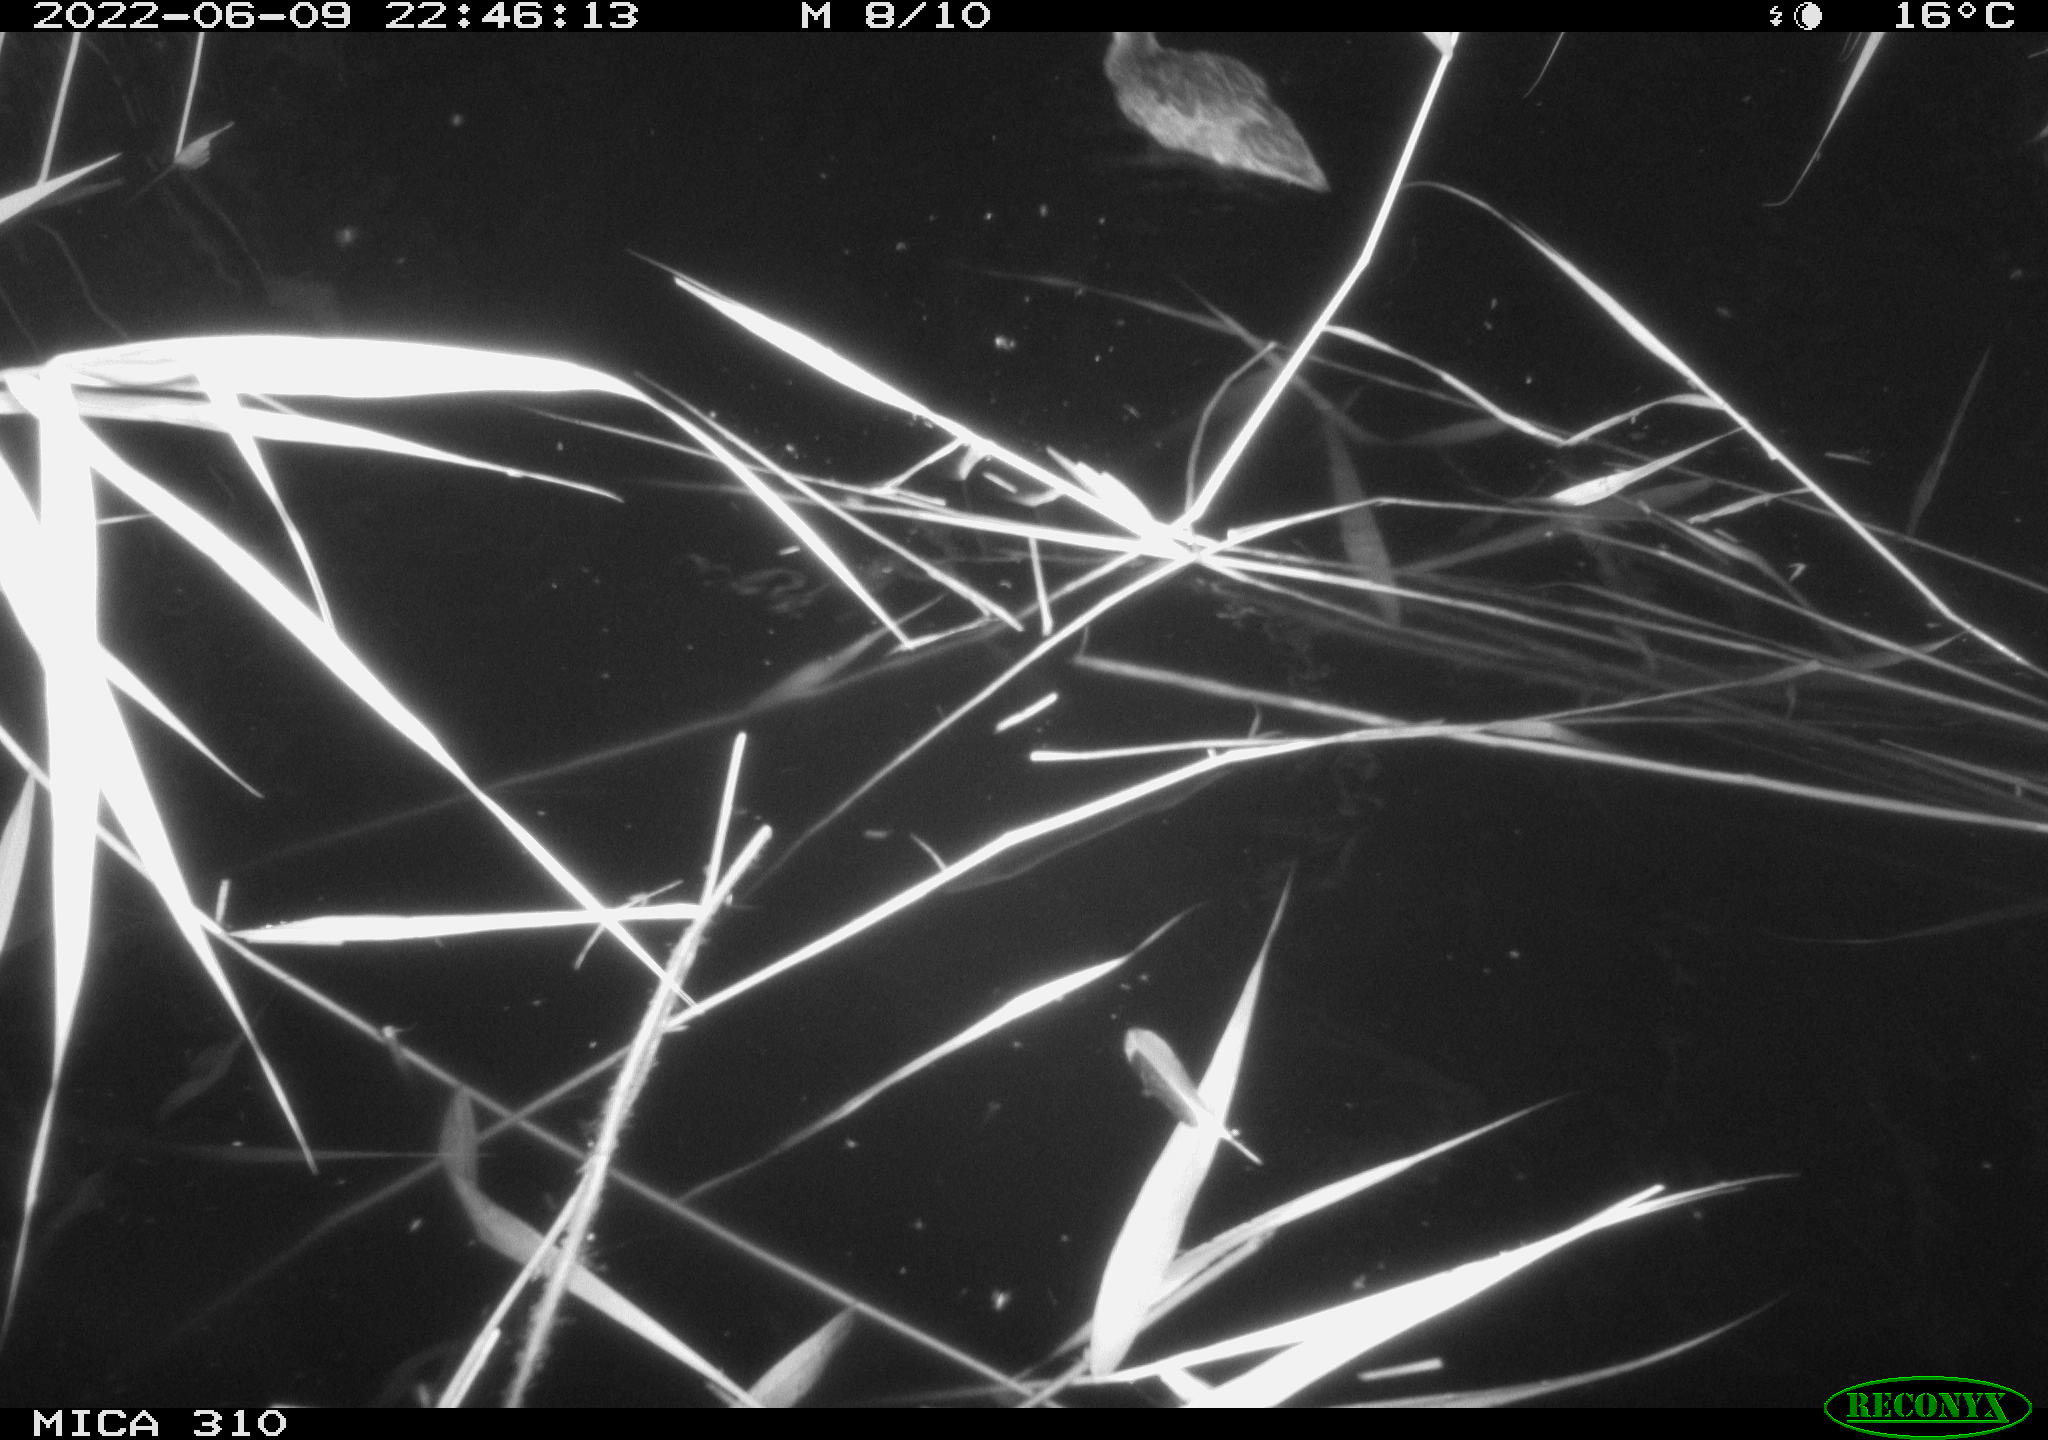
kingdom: Animalia
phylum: Chordata
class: Aves
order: Anseriformes
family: Anatidae
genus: Anas
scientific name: Anas platyrhynchos
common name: Mallard
